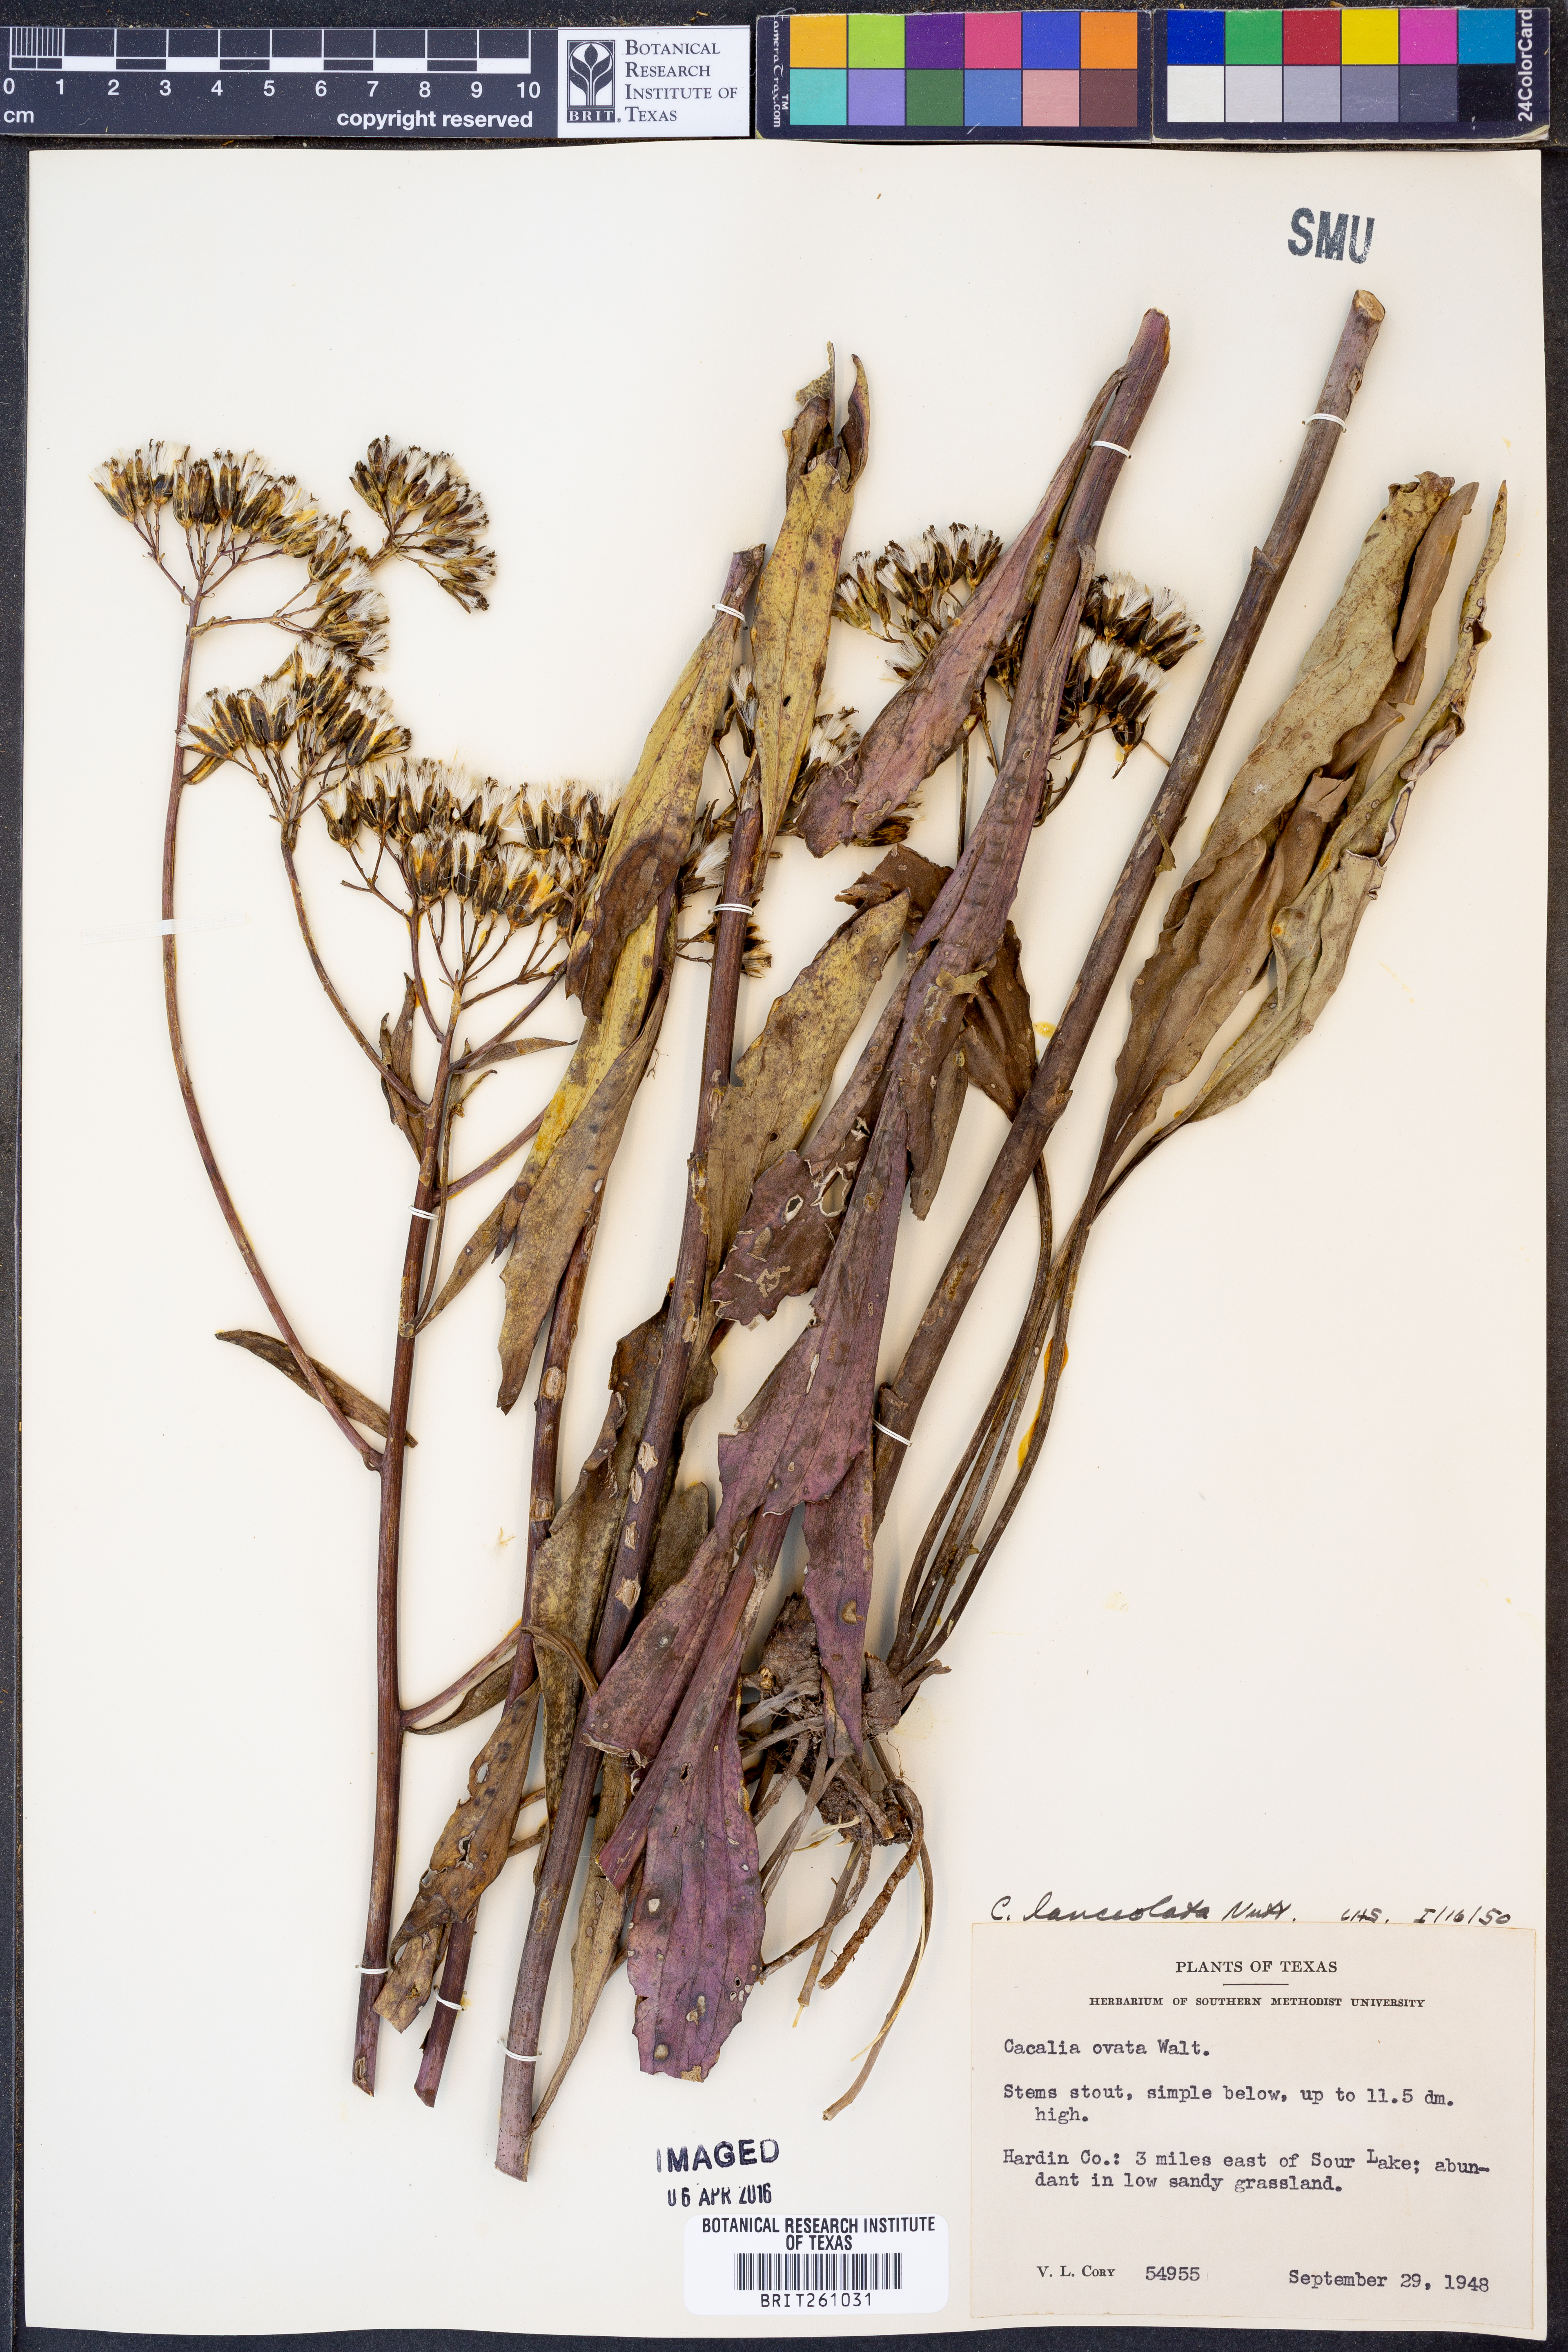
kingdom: Plantae
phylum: Tracheophyta
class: Magnoliopsida
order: Asterales
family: Asteraceae
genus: Arnoglossum
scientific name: Arnoglossum ovatum
